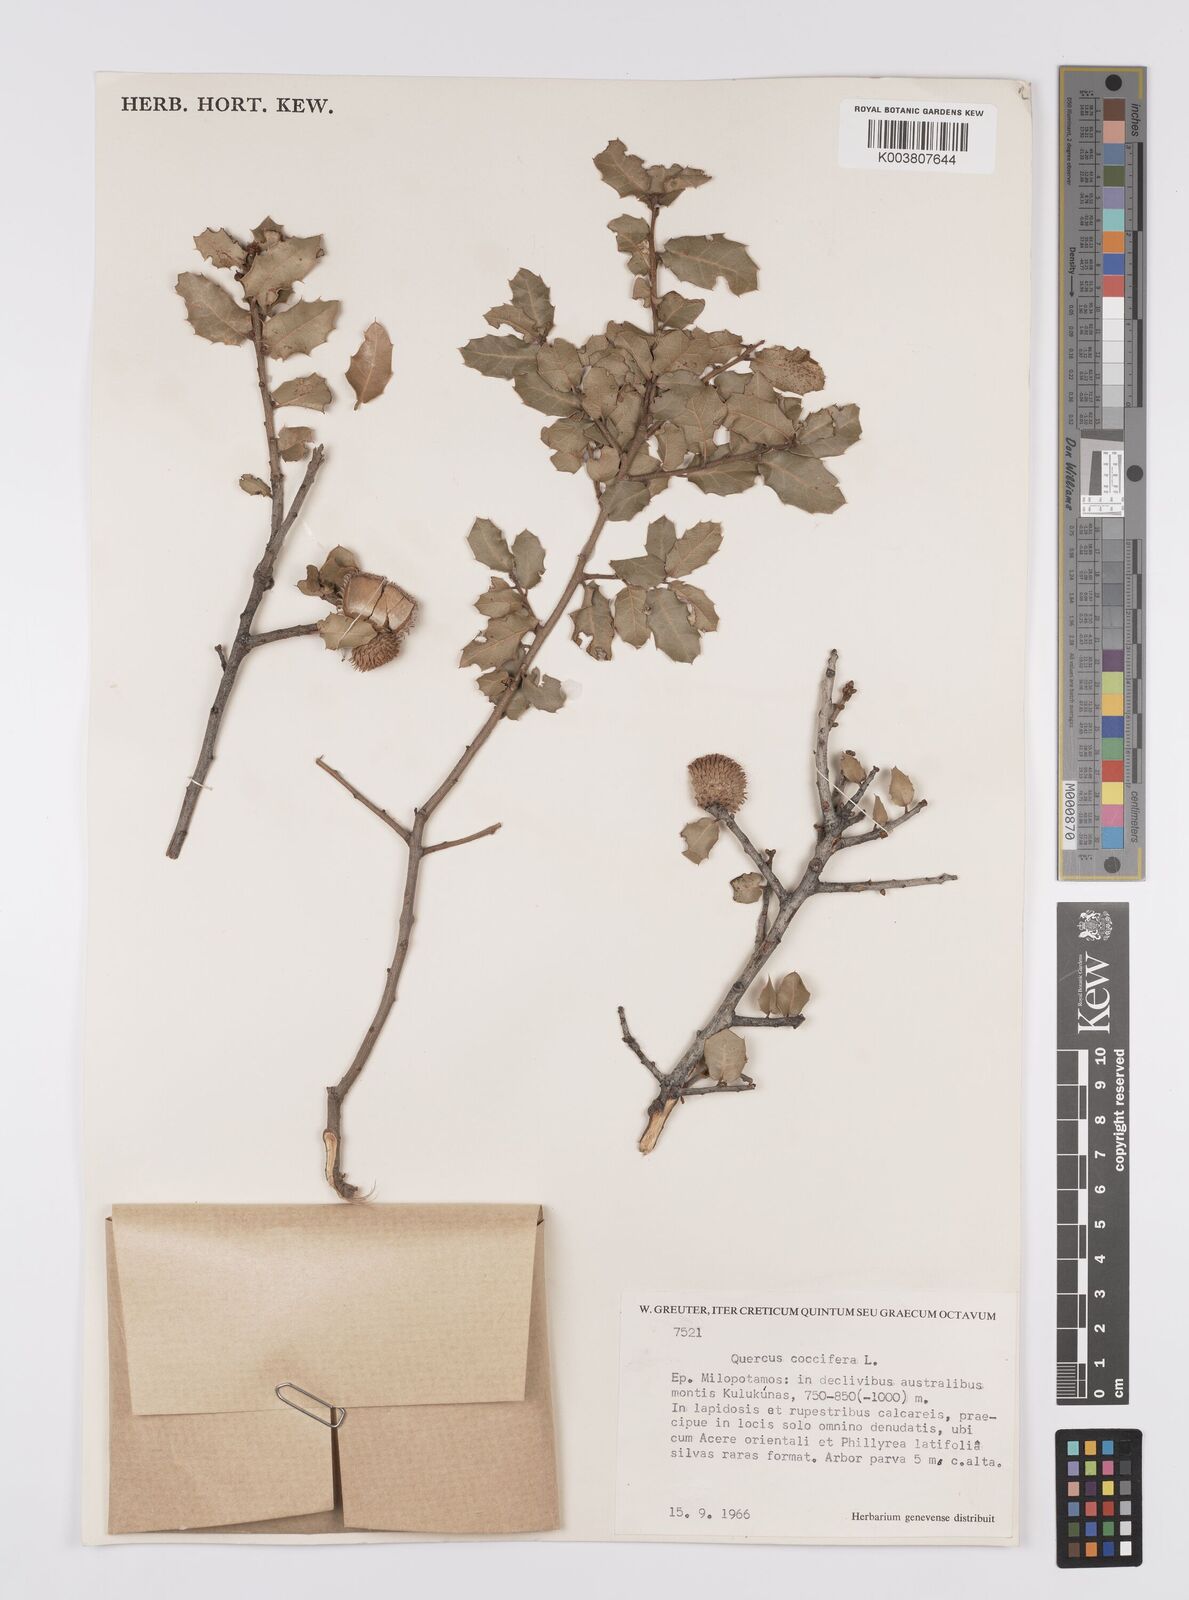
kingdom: Plantae
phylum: Tracheophyta
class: Magnoliopsida
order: Fagales
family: Fagaceae
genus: Quercus
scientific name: Quercus coccifera
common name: Kermes oak
